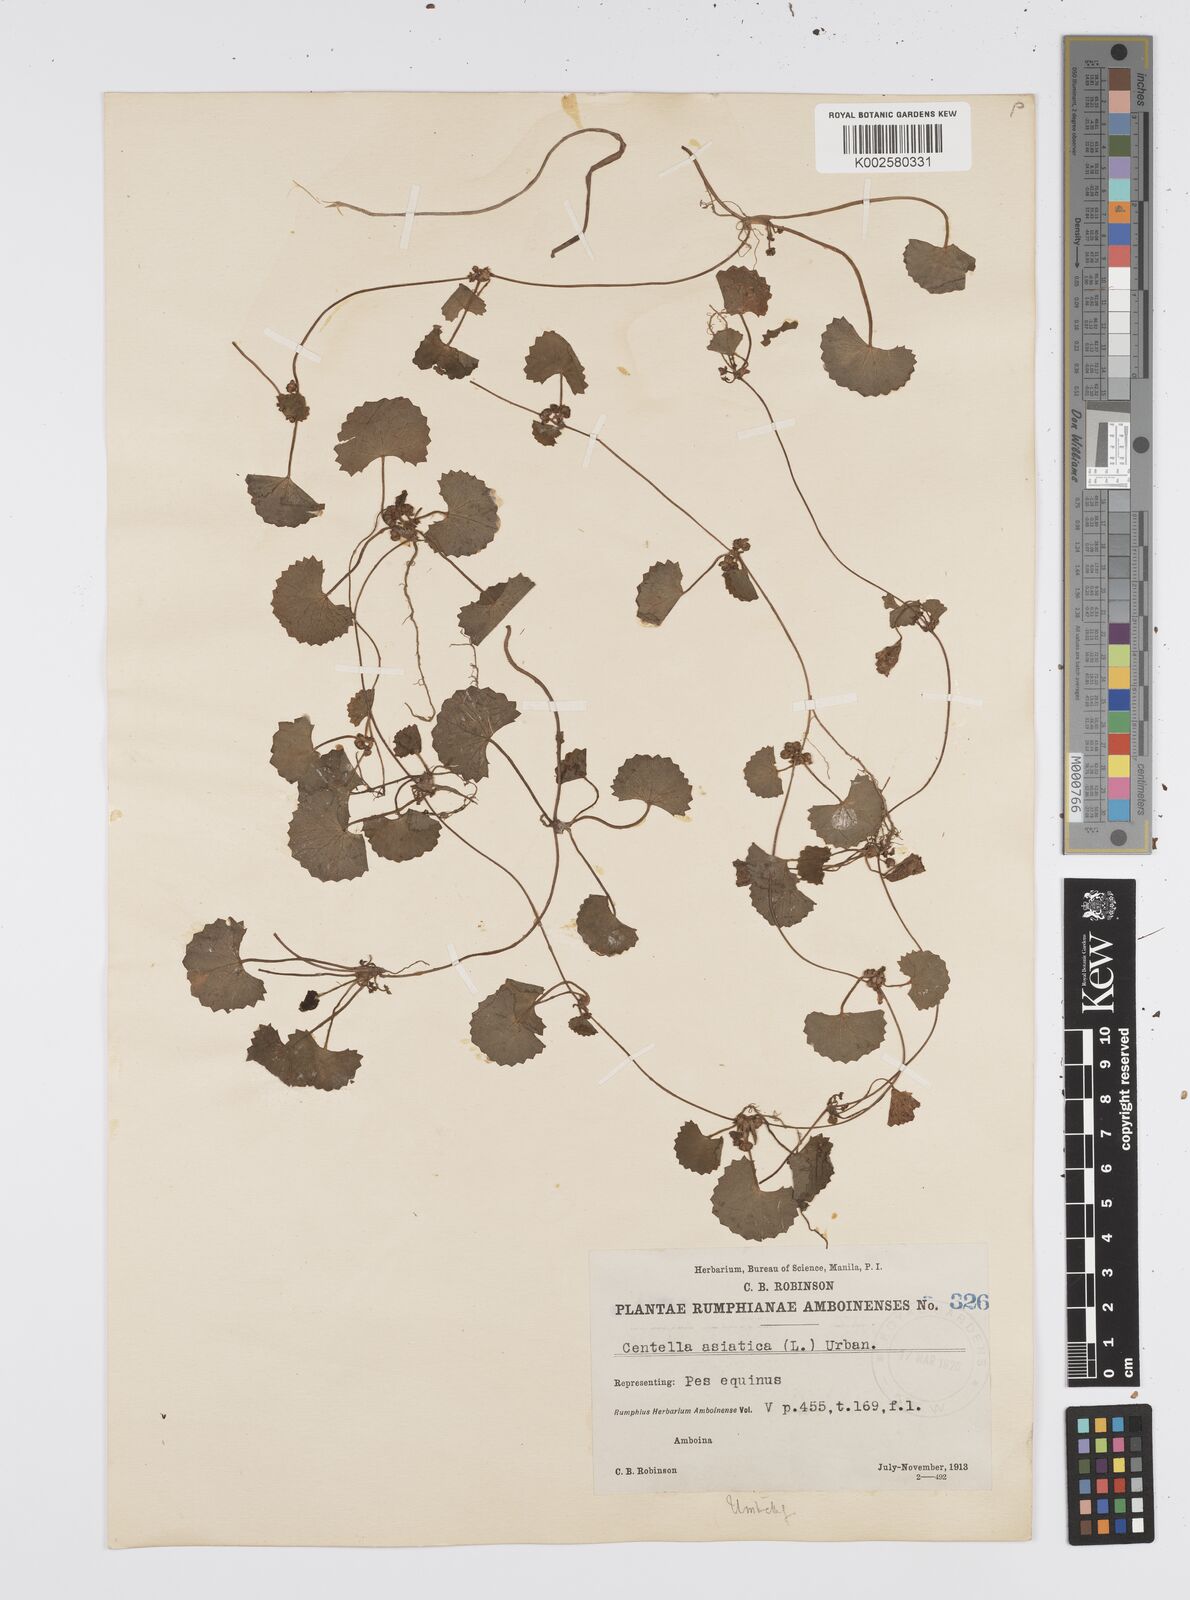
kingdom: Plantae
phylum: Tracheophyta
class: Magnoliopsida
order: Apiales
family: Apiaceae
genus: Centella
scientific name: Centella asiatica
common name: Spadeleaf
